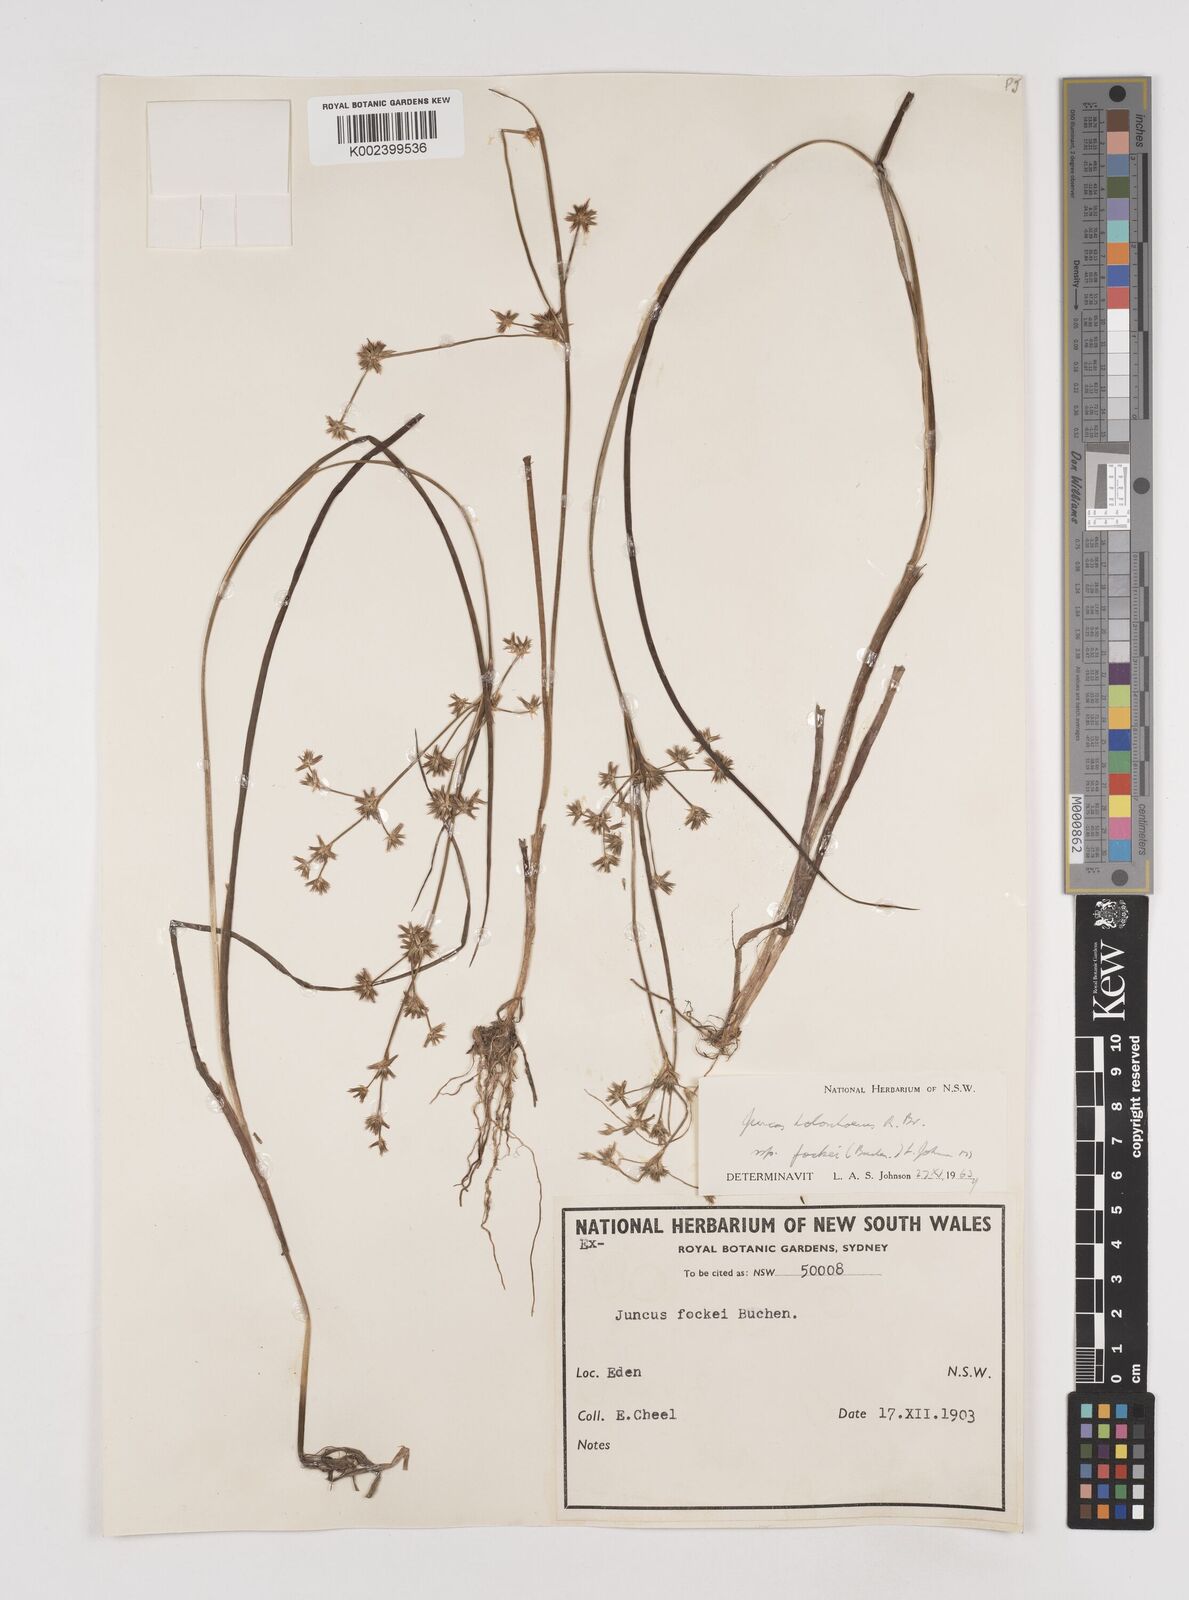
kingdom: Plantae
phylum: Tracheophyta
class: Liliopsida
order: Poales
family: Juncaceae
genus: Juncus
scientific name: Juncus holoschoenus
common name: Joint-leaf rush
